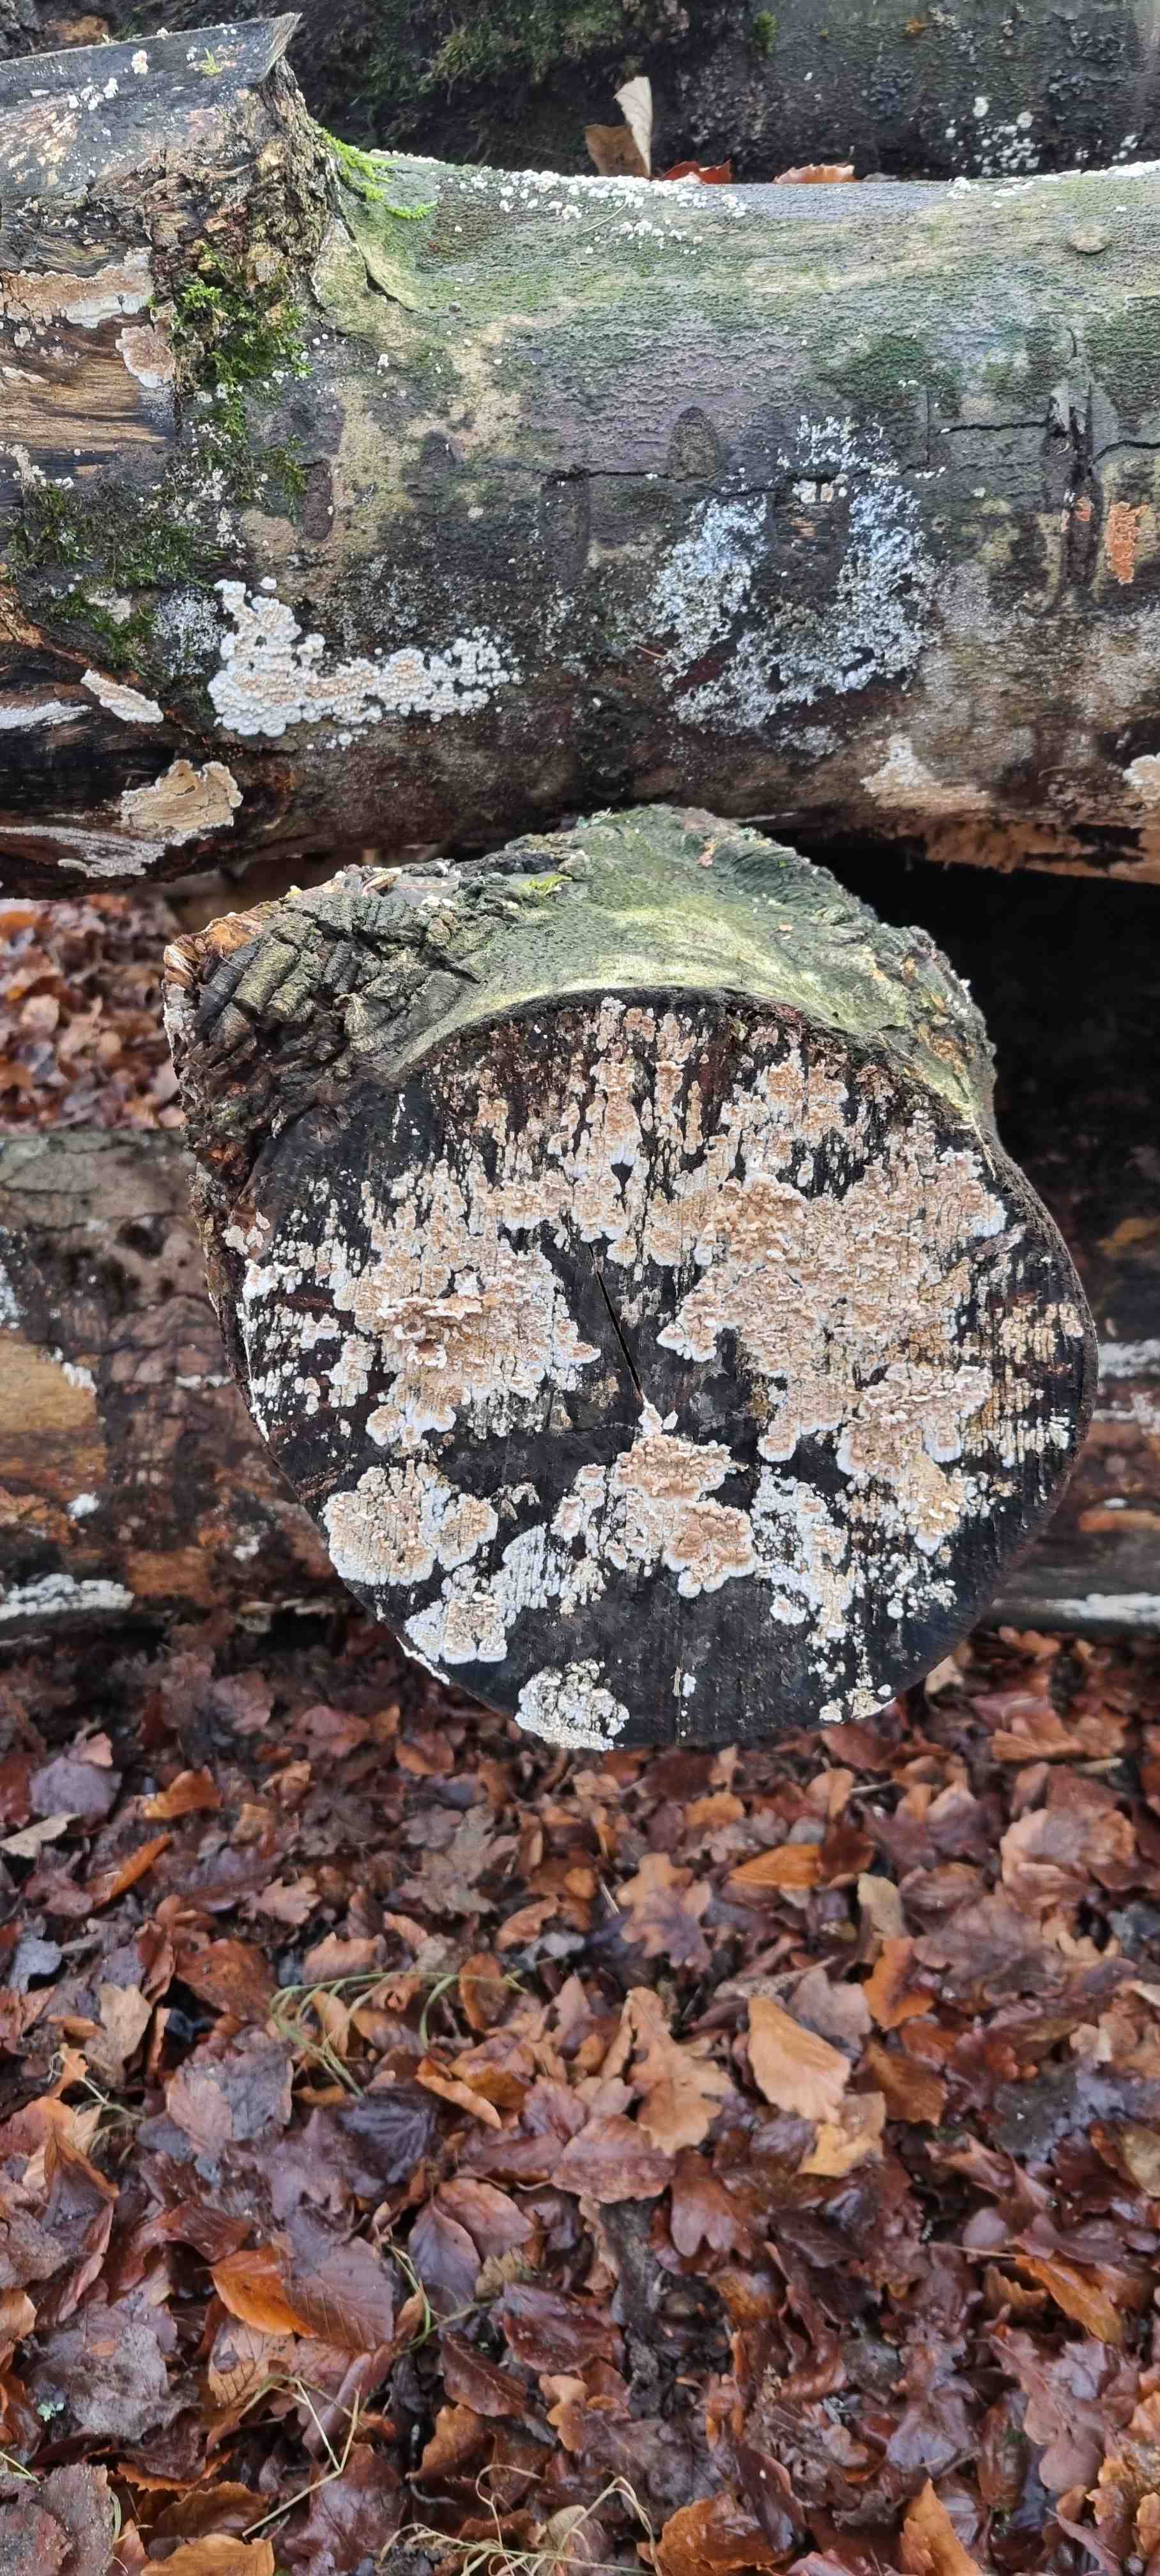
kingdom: Fungi
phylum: Basidiomycota
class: Agaricomycetes
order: Agaricales
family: Physalacriaceae
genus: Cylindrobasidium
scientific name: Cylindrobasidium evolvens
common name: sprækkehinde
